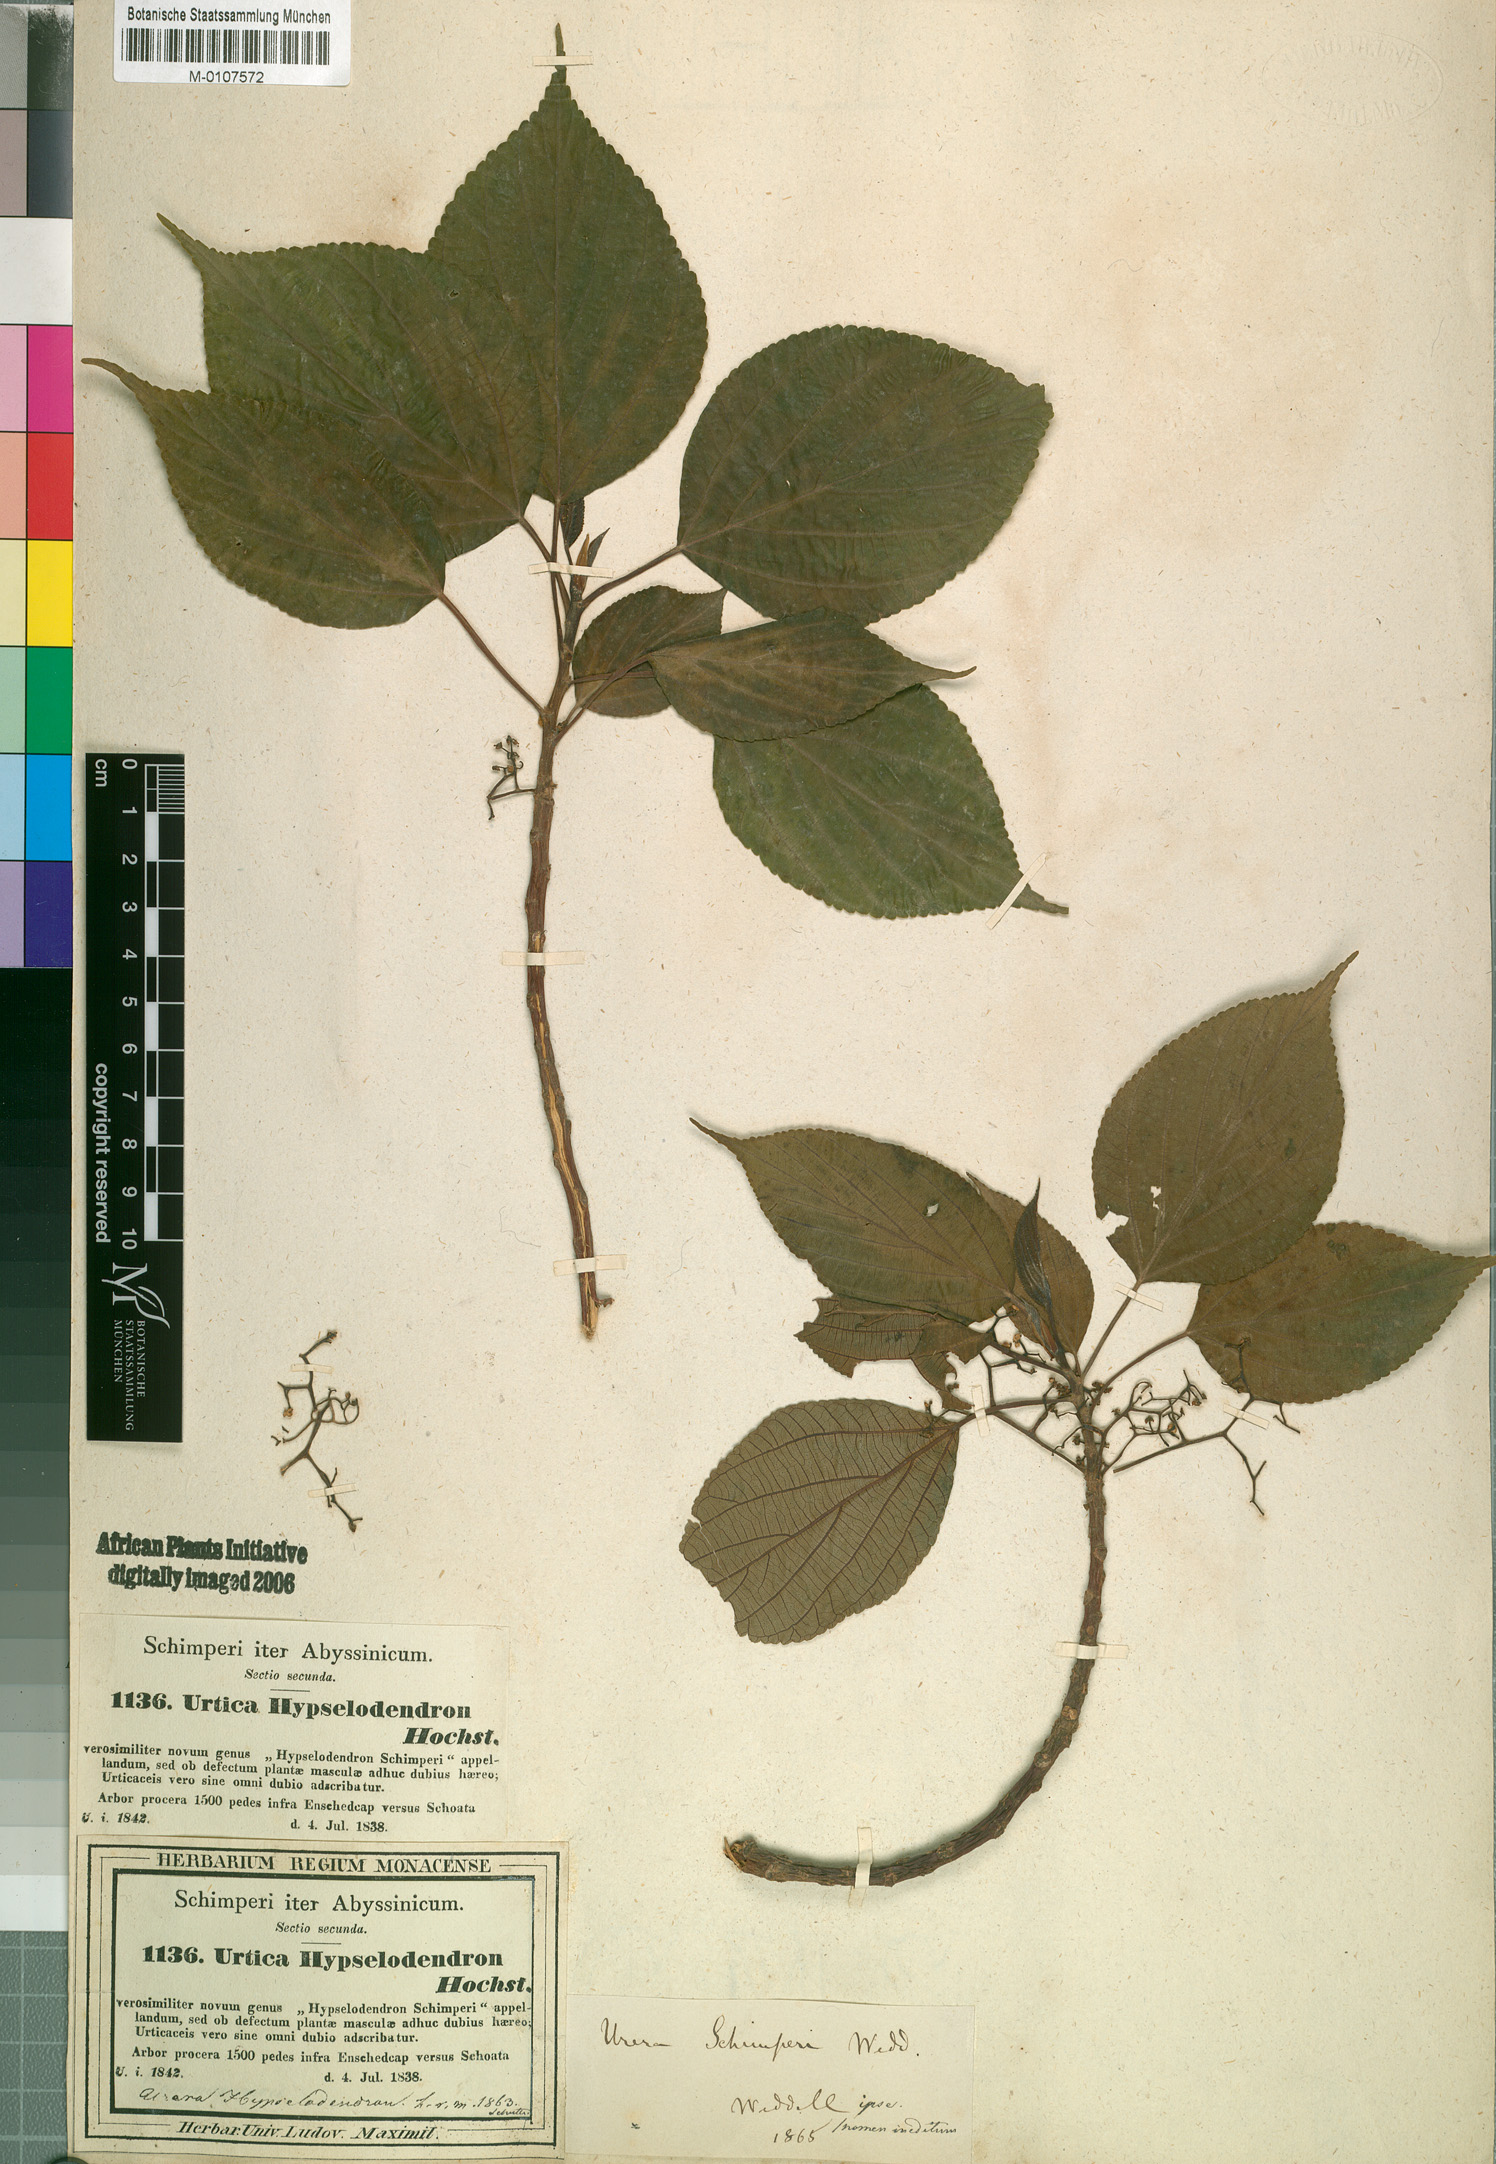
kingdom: Plantae
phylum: Tracheophyta
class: Magnoliopsida
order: Rosales
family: Urticaceae
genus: Scepocarpus
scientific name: Scepocarpus hypselodendron
